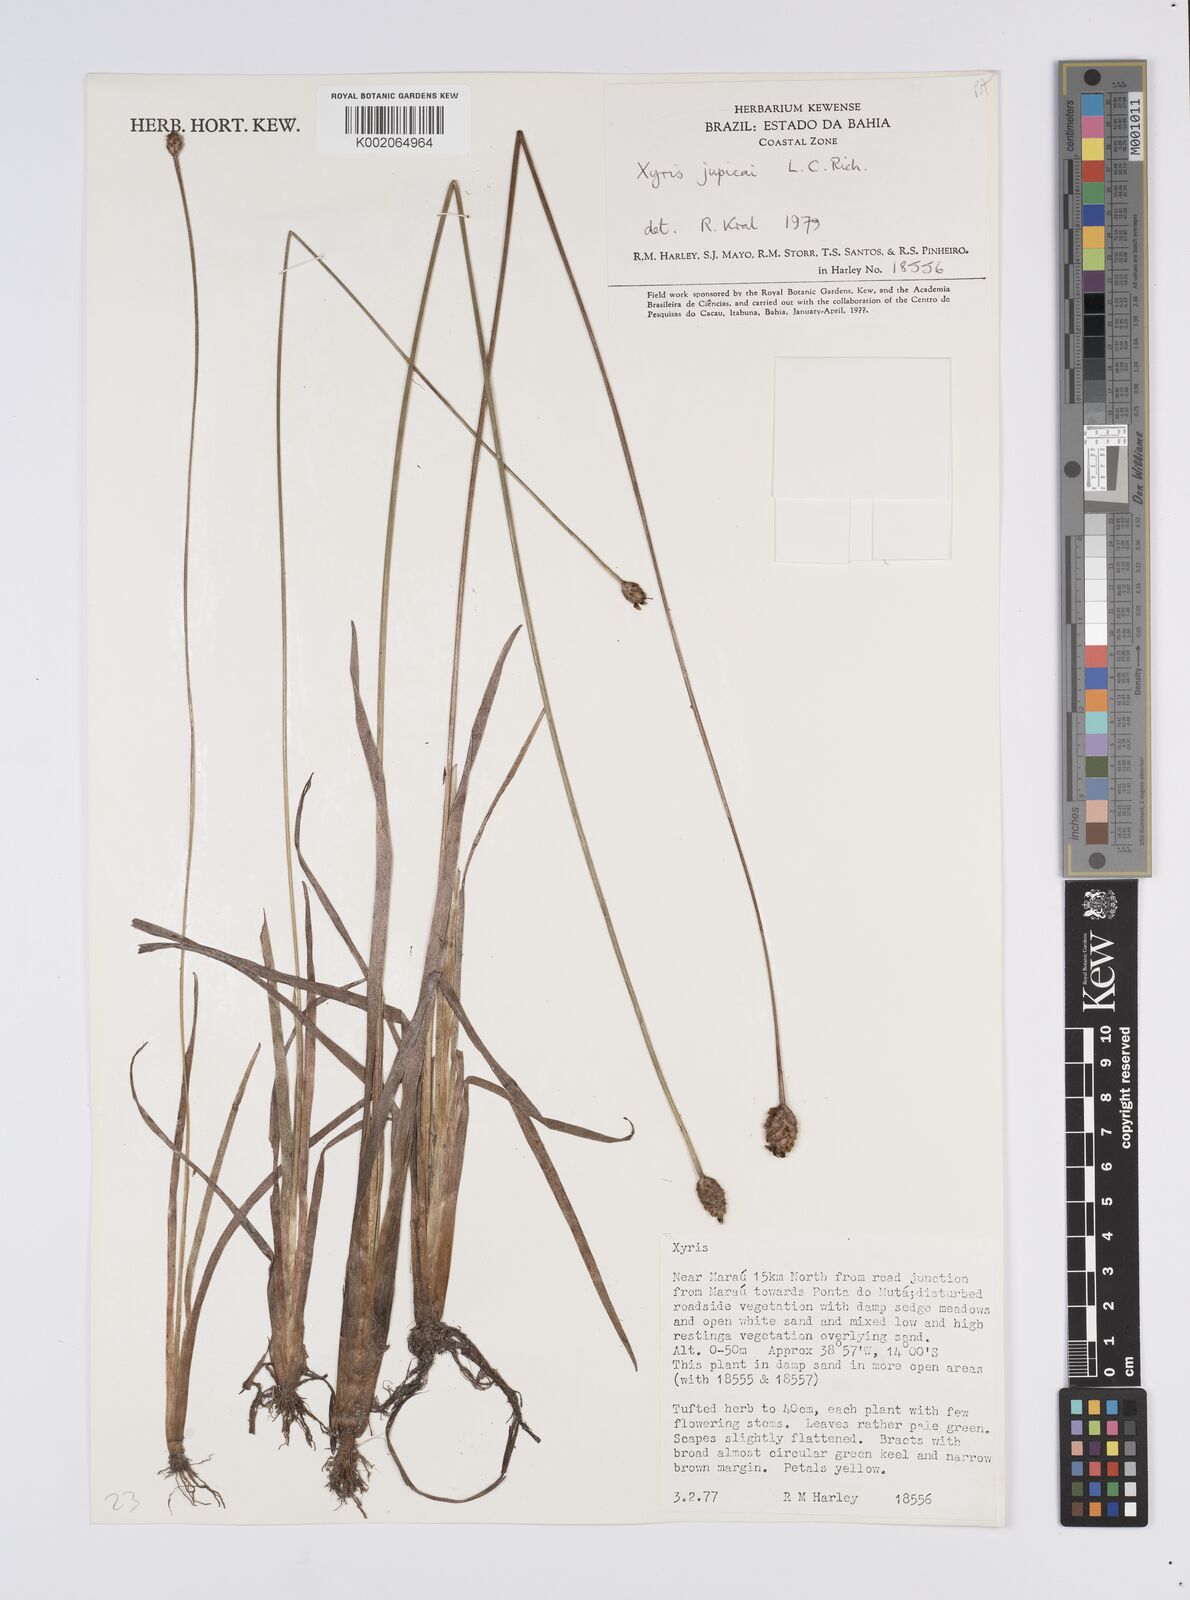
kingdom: Plantae
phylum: Tracheophyta
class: Liliopsida
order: Poales
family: Xyridaceae
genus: Xyris
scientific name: Xyris jupicai
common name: Richard's yelloweyed grass
